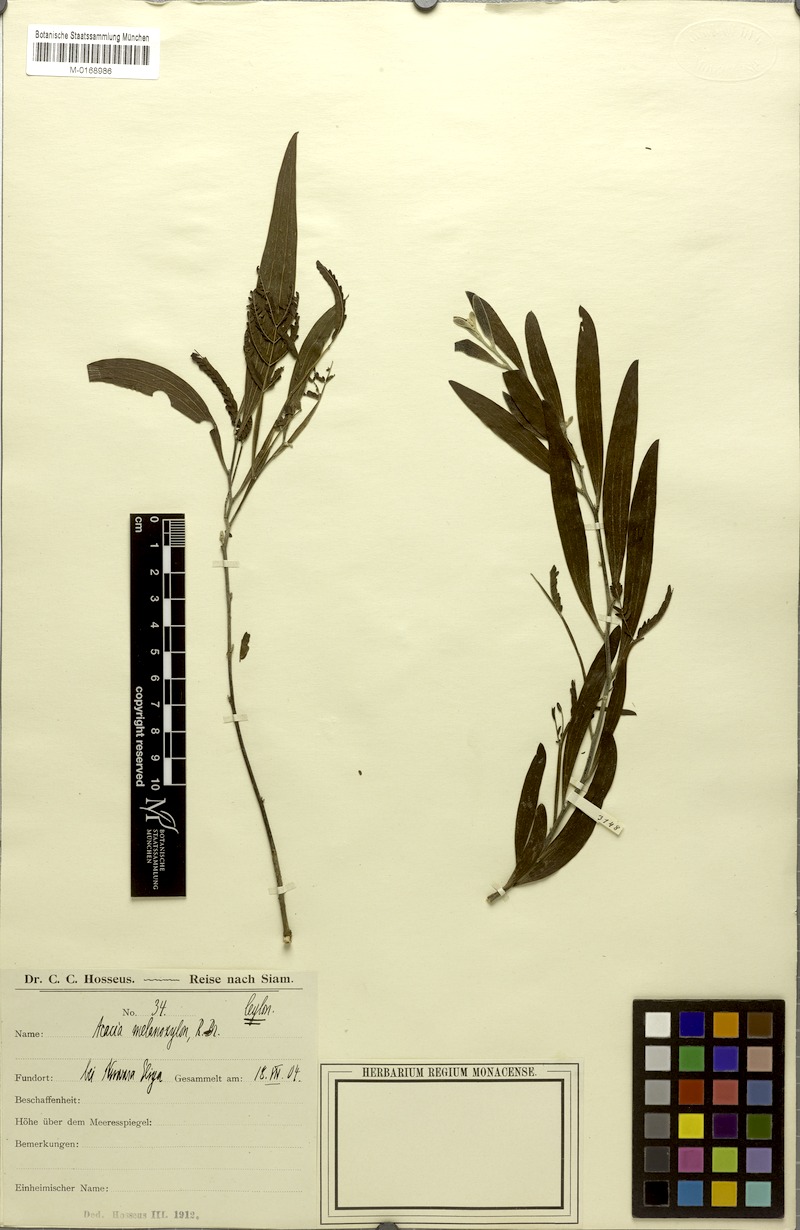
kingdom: Plantae
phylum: Tracheophyta
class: Magnoliopsida
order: Fabales
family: Fabaceae
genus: Acacia
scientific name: Acacia melanoxylon
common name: Blackwood
